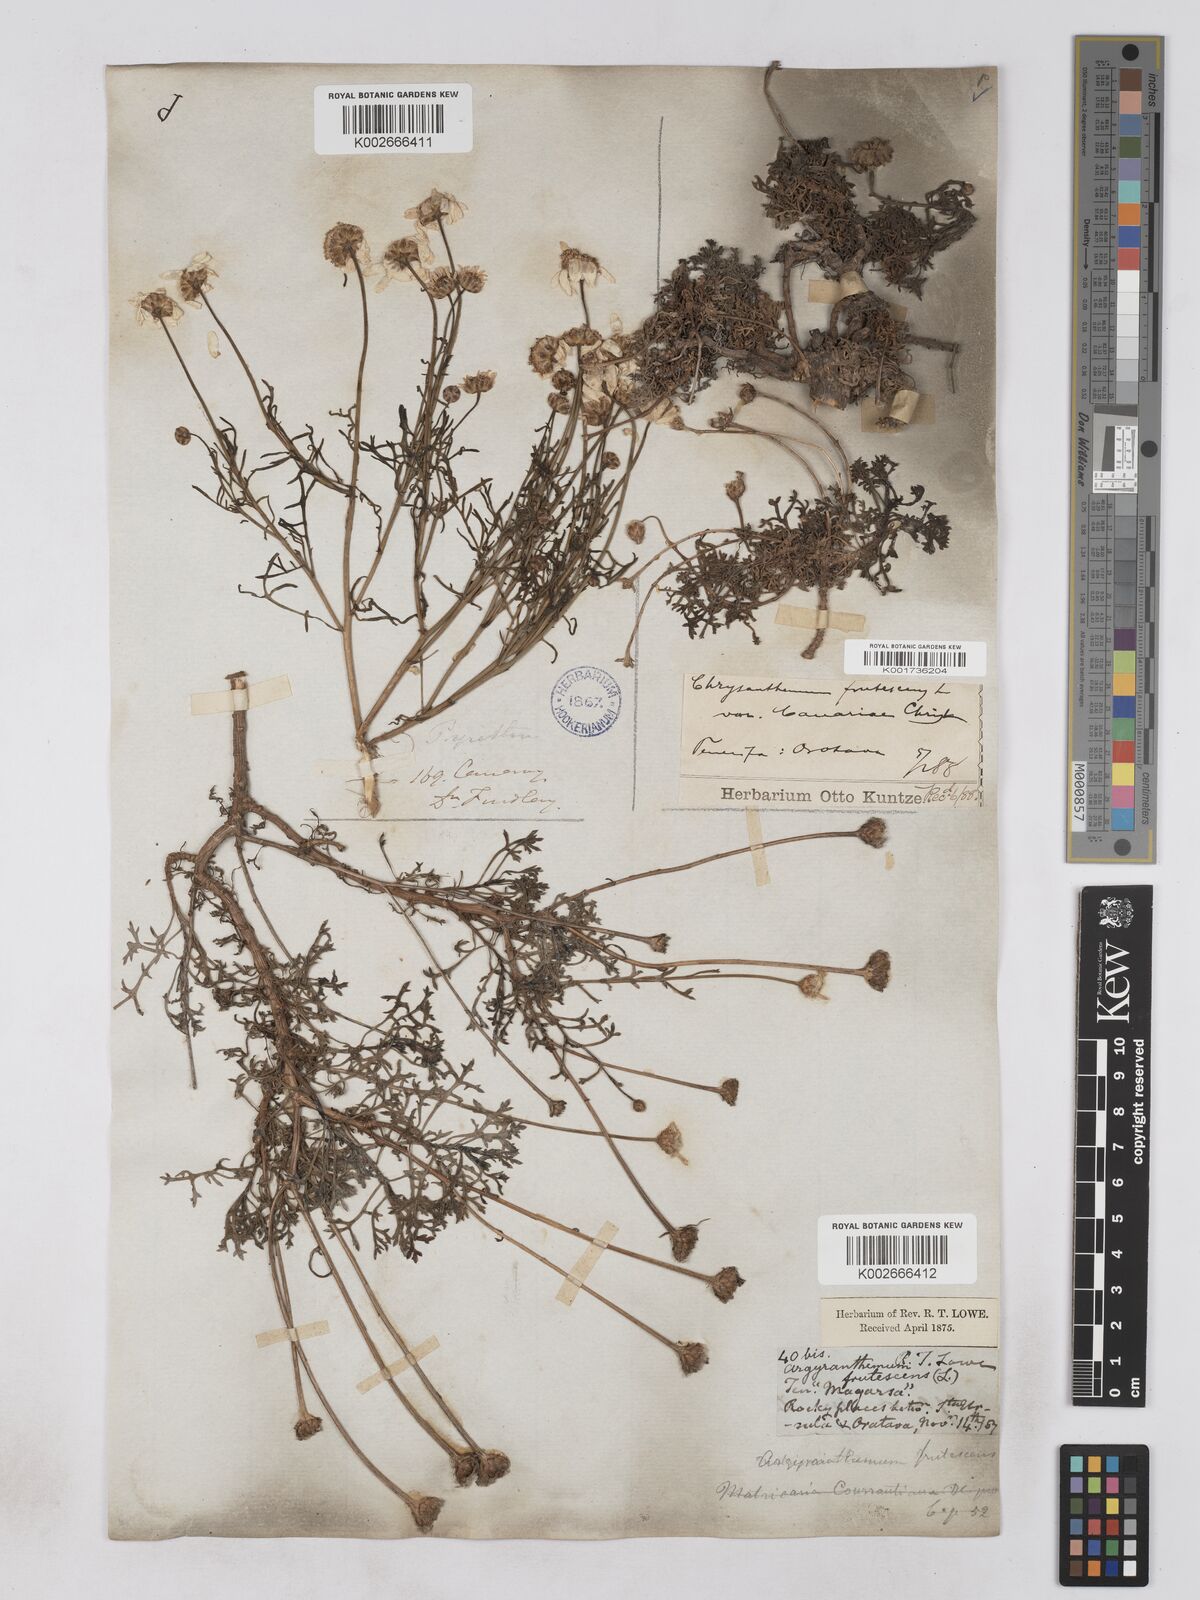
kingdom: Plantae
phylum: Tracheophyta
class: Magnoliopsida
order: Asterales
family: Asteraceae
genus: Argyranthemum
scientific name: Argyranthemum frutescens
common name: Paris daisy
